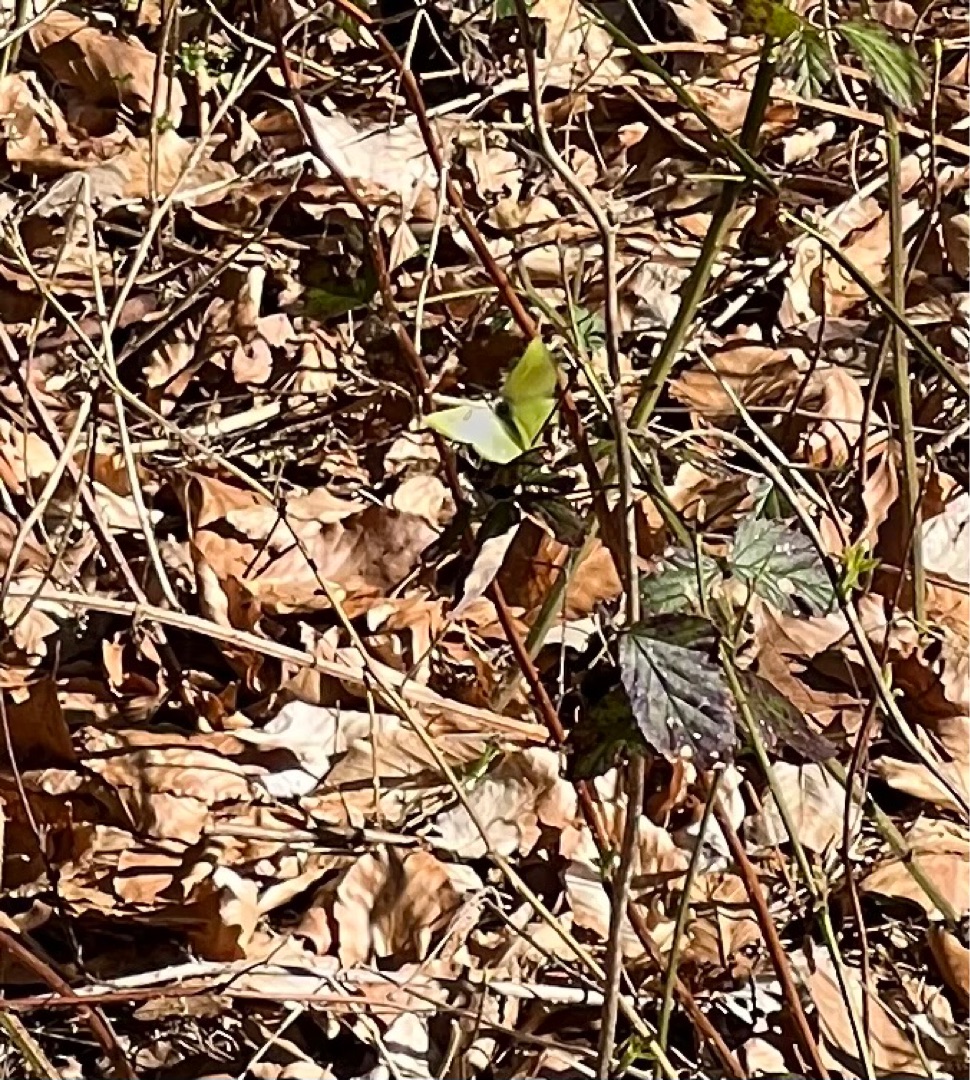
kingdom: Animalia
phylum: Arthropoda
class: Insecta
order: Lepidoptera
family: Pieridae
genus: Gonepteryx
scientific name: Gonepteryx rhamni
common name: Citronsommerfugl
